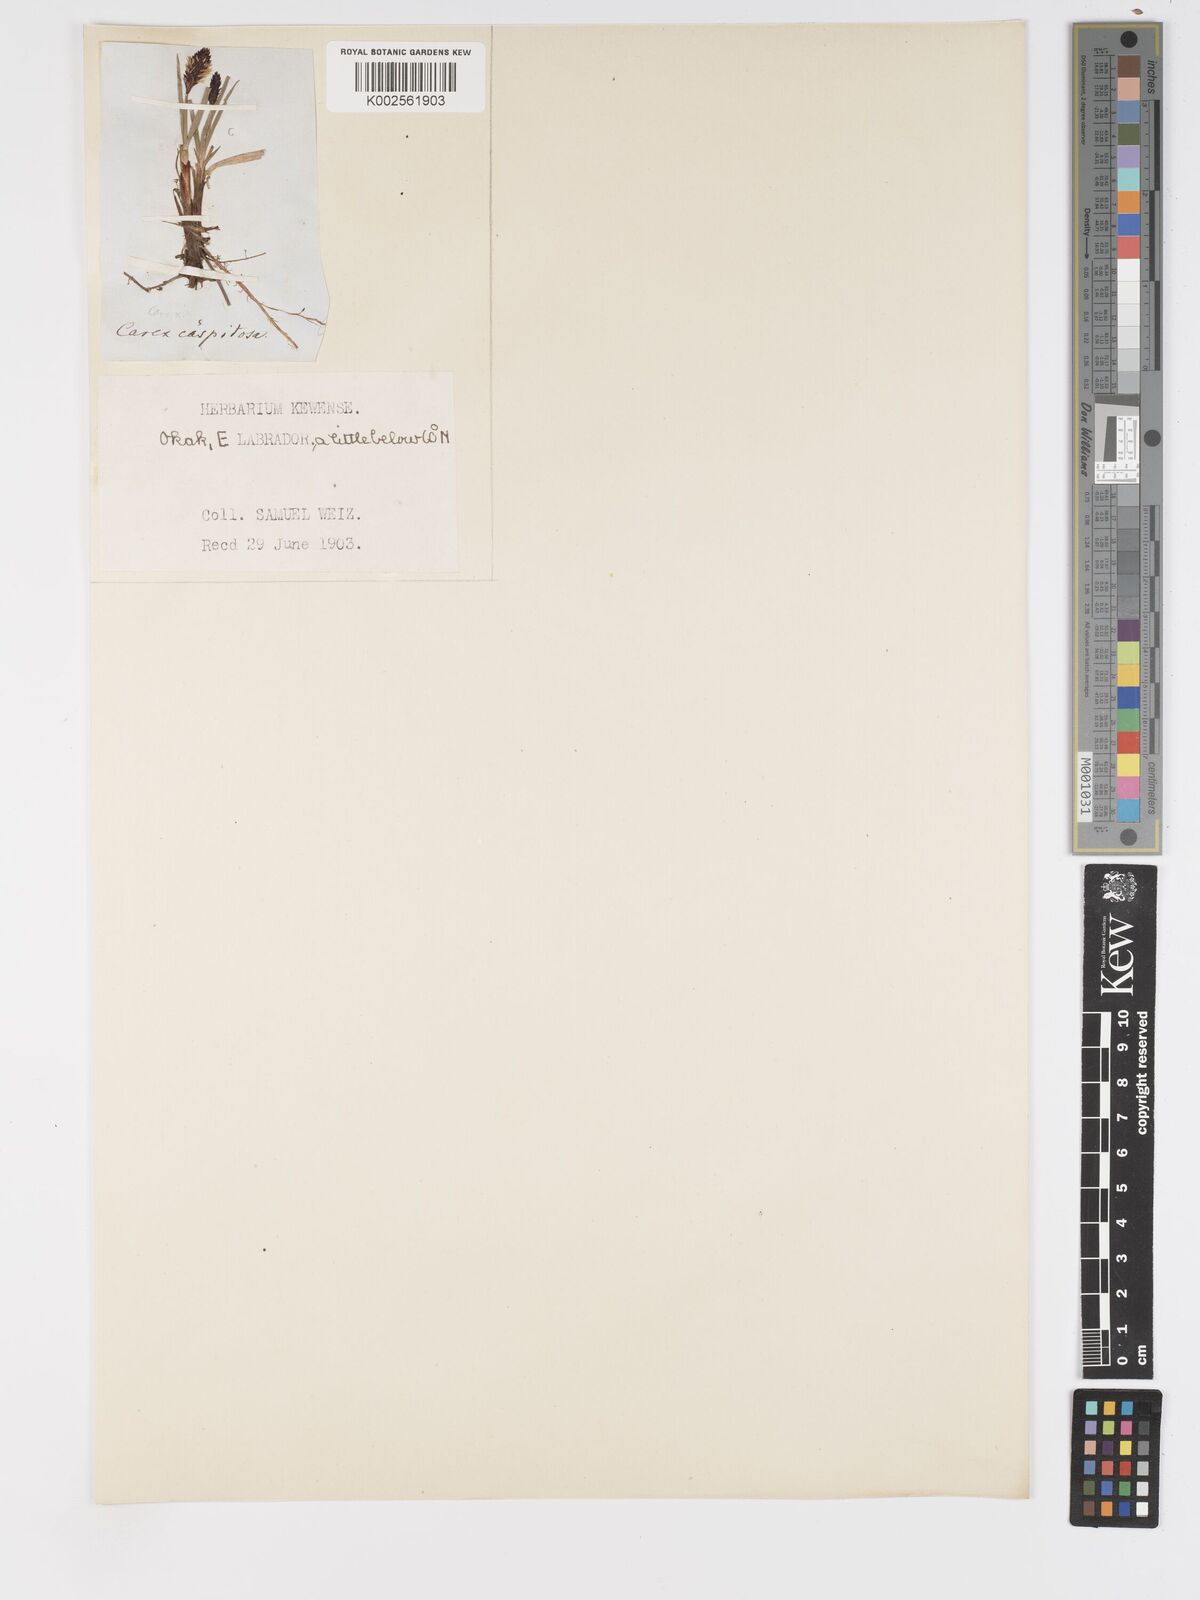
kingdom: Plantae
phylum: Tracheophyta
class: Liliopsida
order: Poales
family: Cyperaceae
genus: Carex
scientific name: Carex bigelowii
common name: Stiff sedge
